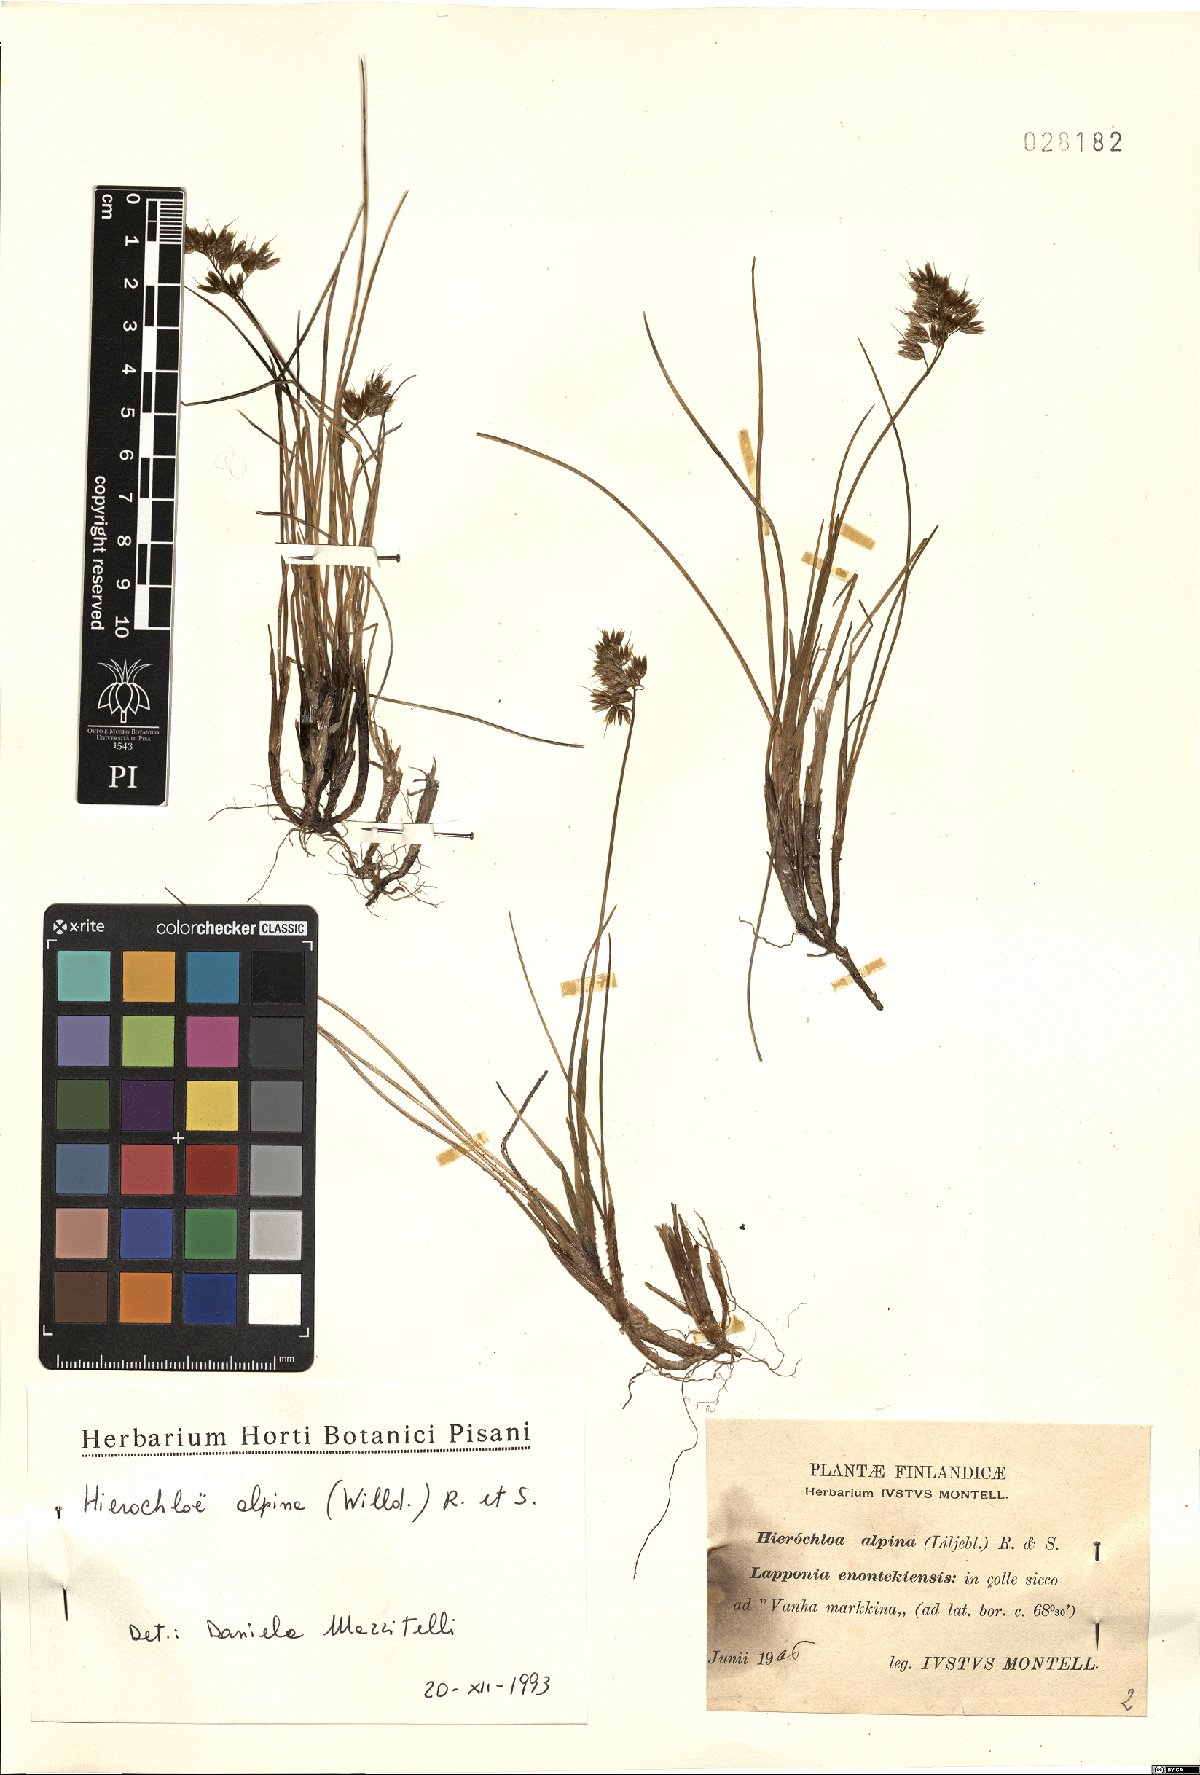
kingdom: Plantae
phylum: Tracheophyta
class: Liliopsida
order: Poales
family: Poaceae
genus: Anthoxanthum
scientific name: Anthoxanthum monticola
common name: Alpine sweetgrass
